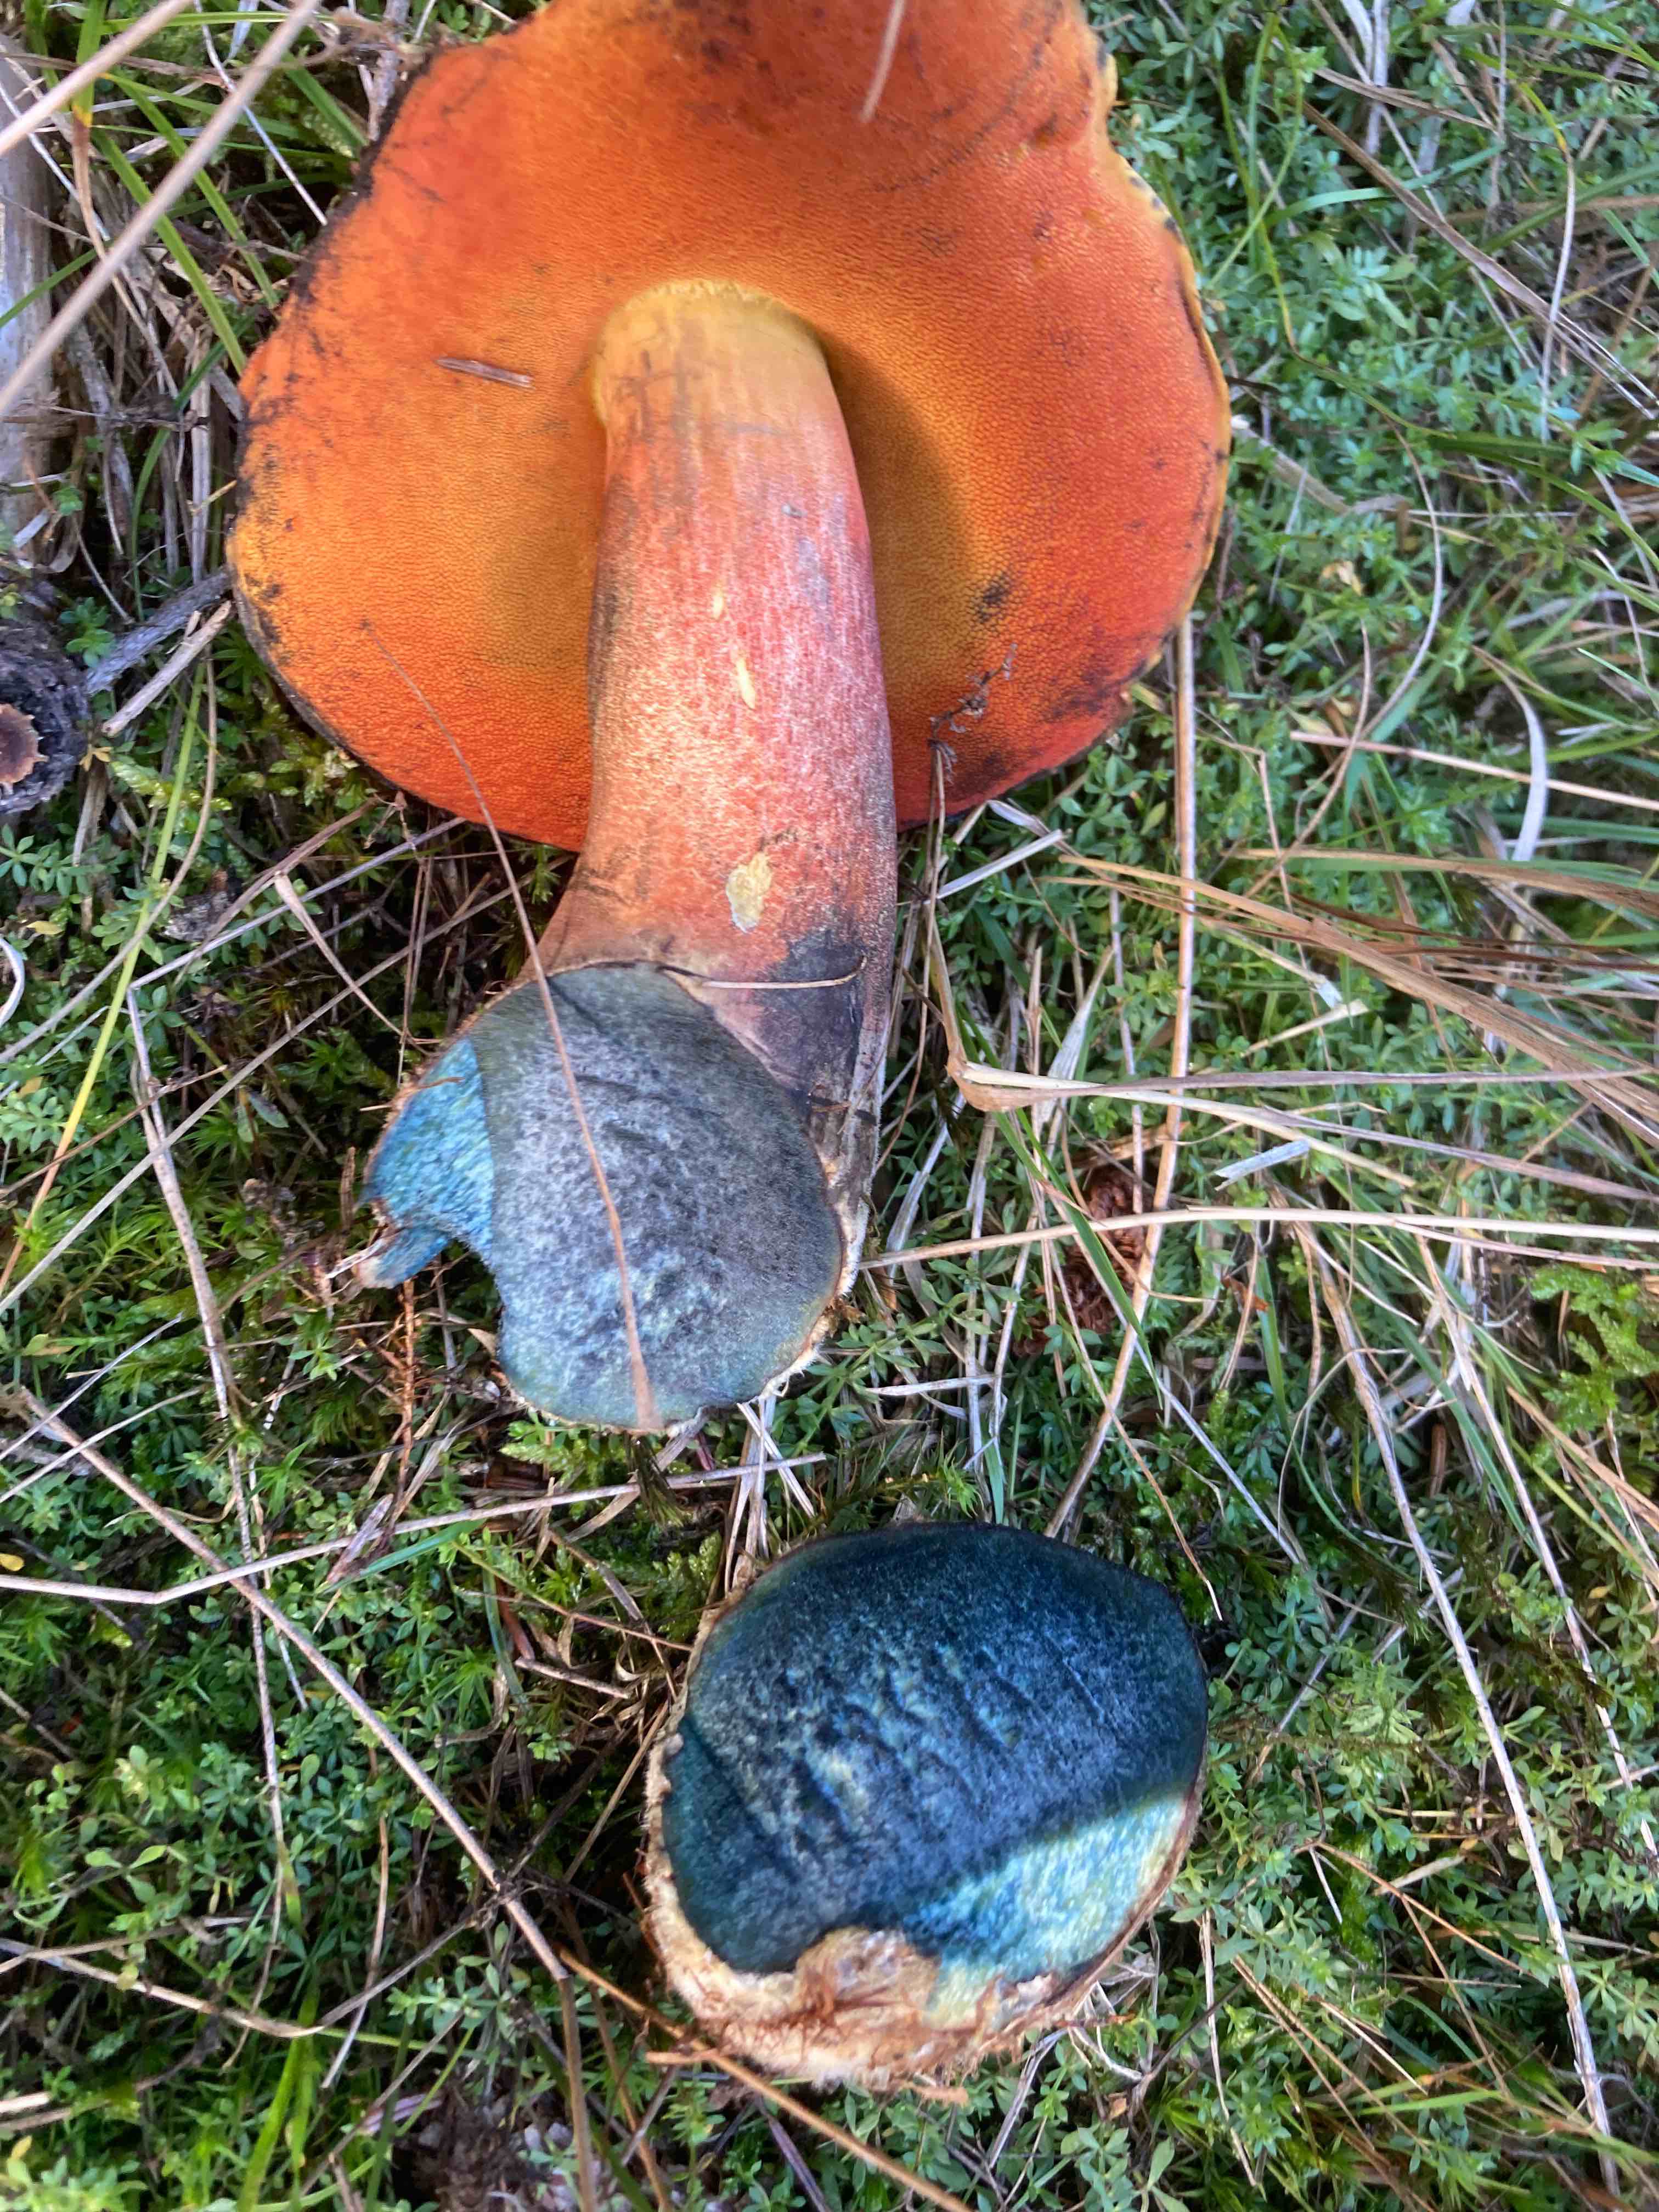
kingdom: Fungi
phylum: Basidiomycota
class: Agaricomycetes
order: Boletales
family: Boletaceae
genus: Neoboletus
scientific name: Neoboletus erythropus
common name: punktstokket indigorørhat
